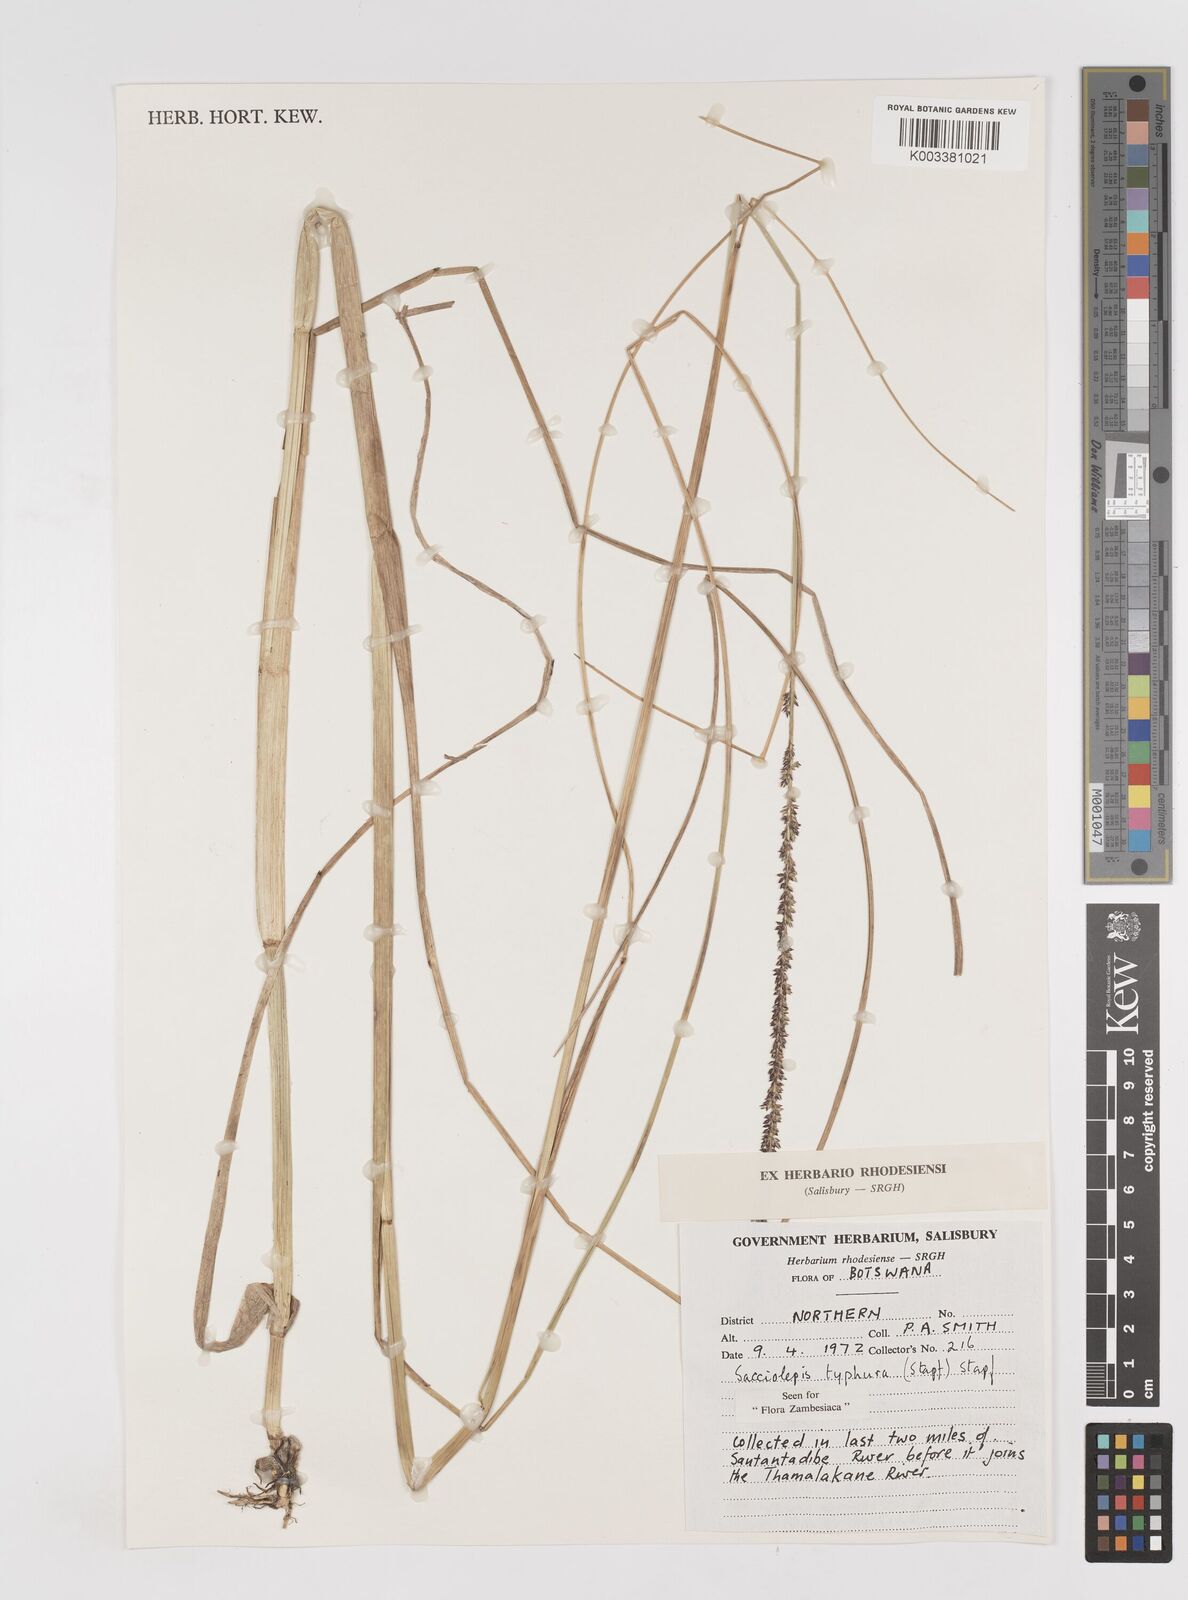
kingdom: Plantae
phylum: Tracheophyta
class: Liliopsida
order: Poales
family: Poaceae
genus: Sacciolepis
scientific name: Sacciolepis typhura
